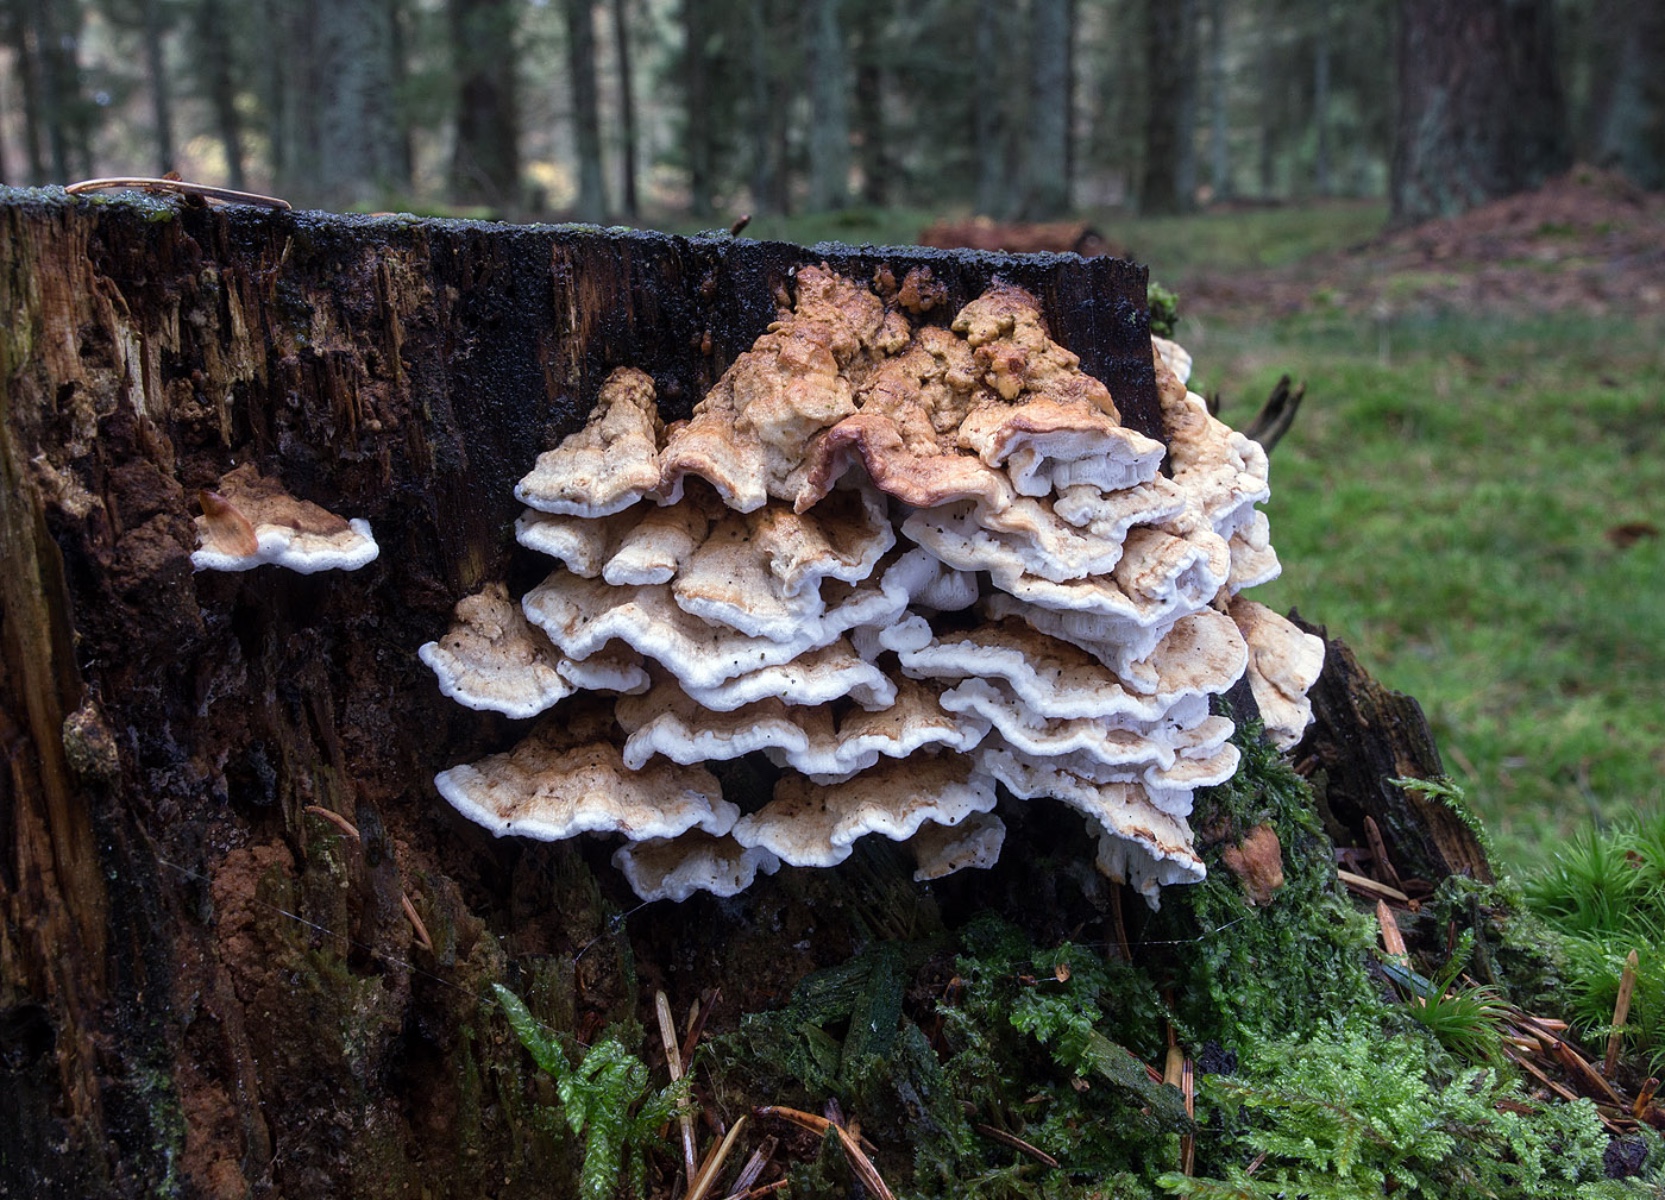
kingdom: Fungi
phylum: Basidiomycota
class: Agaricomycetes
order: Polyporales
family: Fomitopsidaceae
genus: Neoantrodia
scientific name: Neoantrodia serialis
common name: række-sejporesvamp
